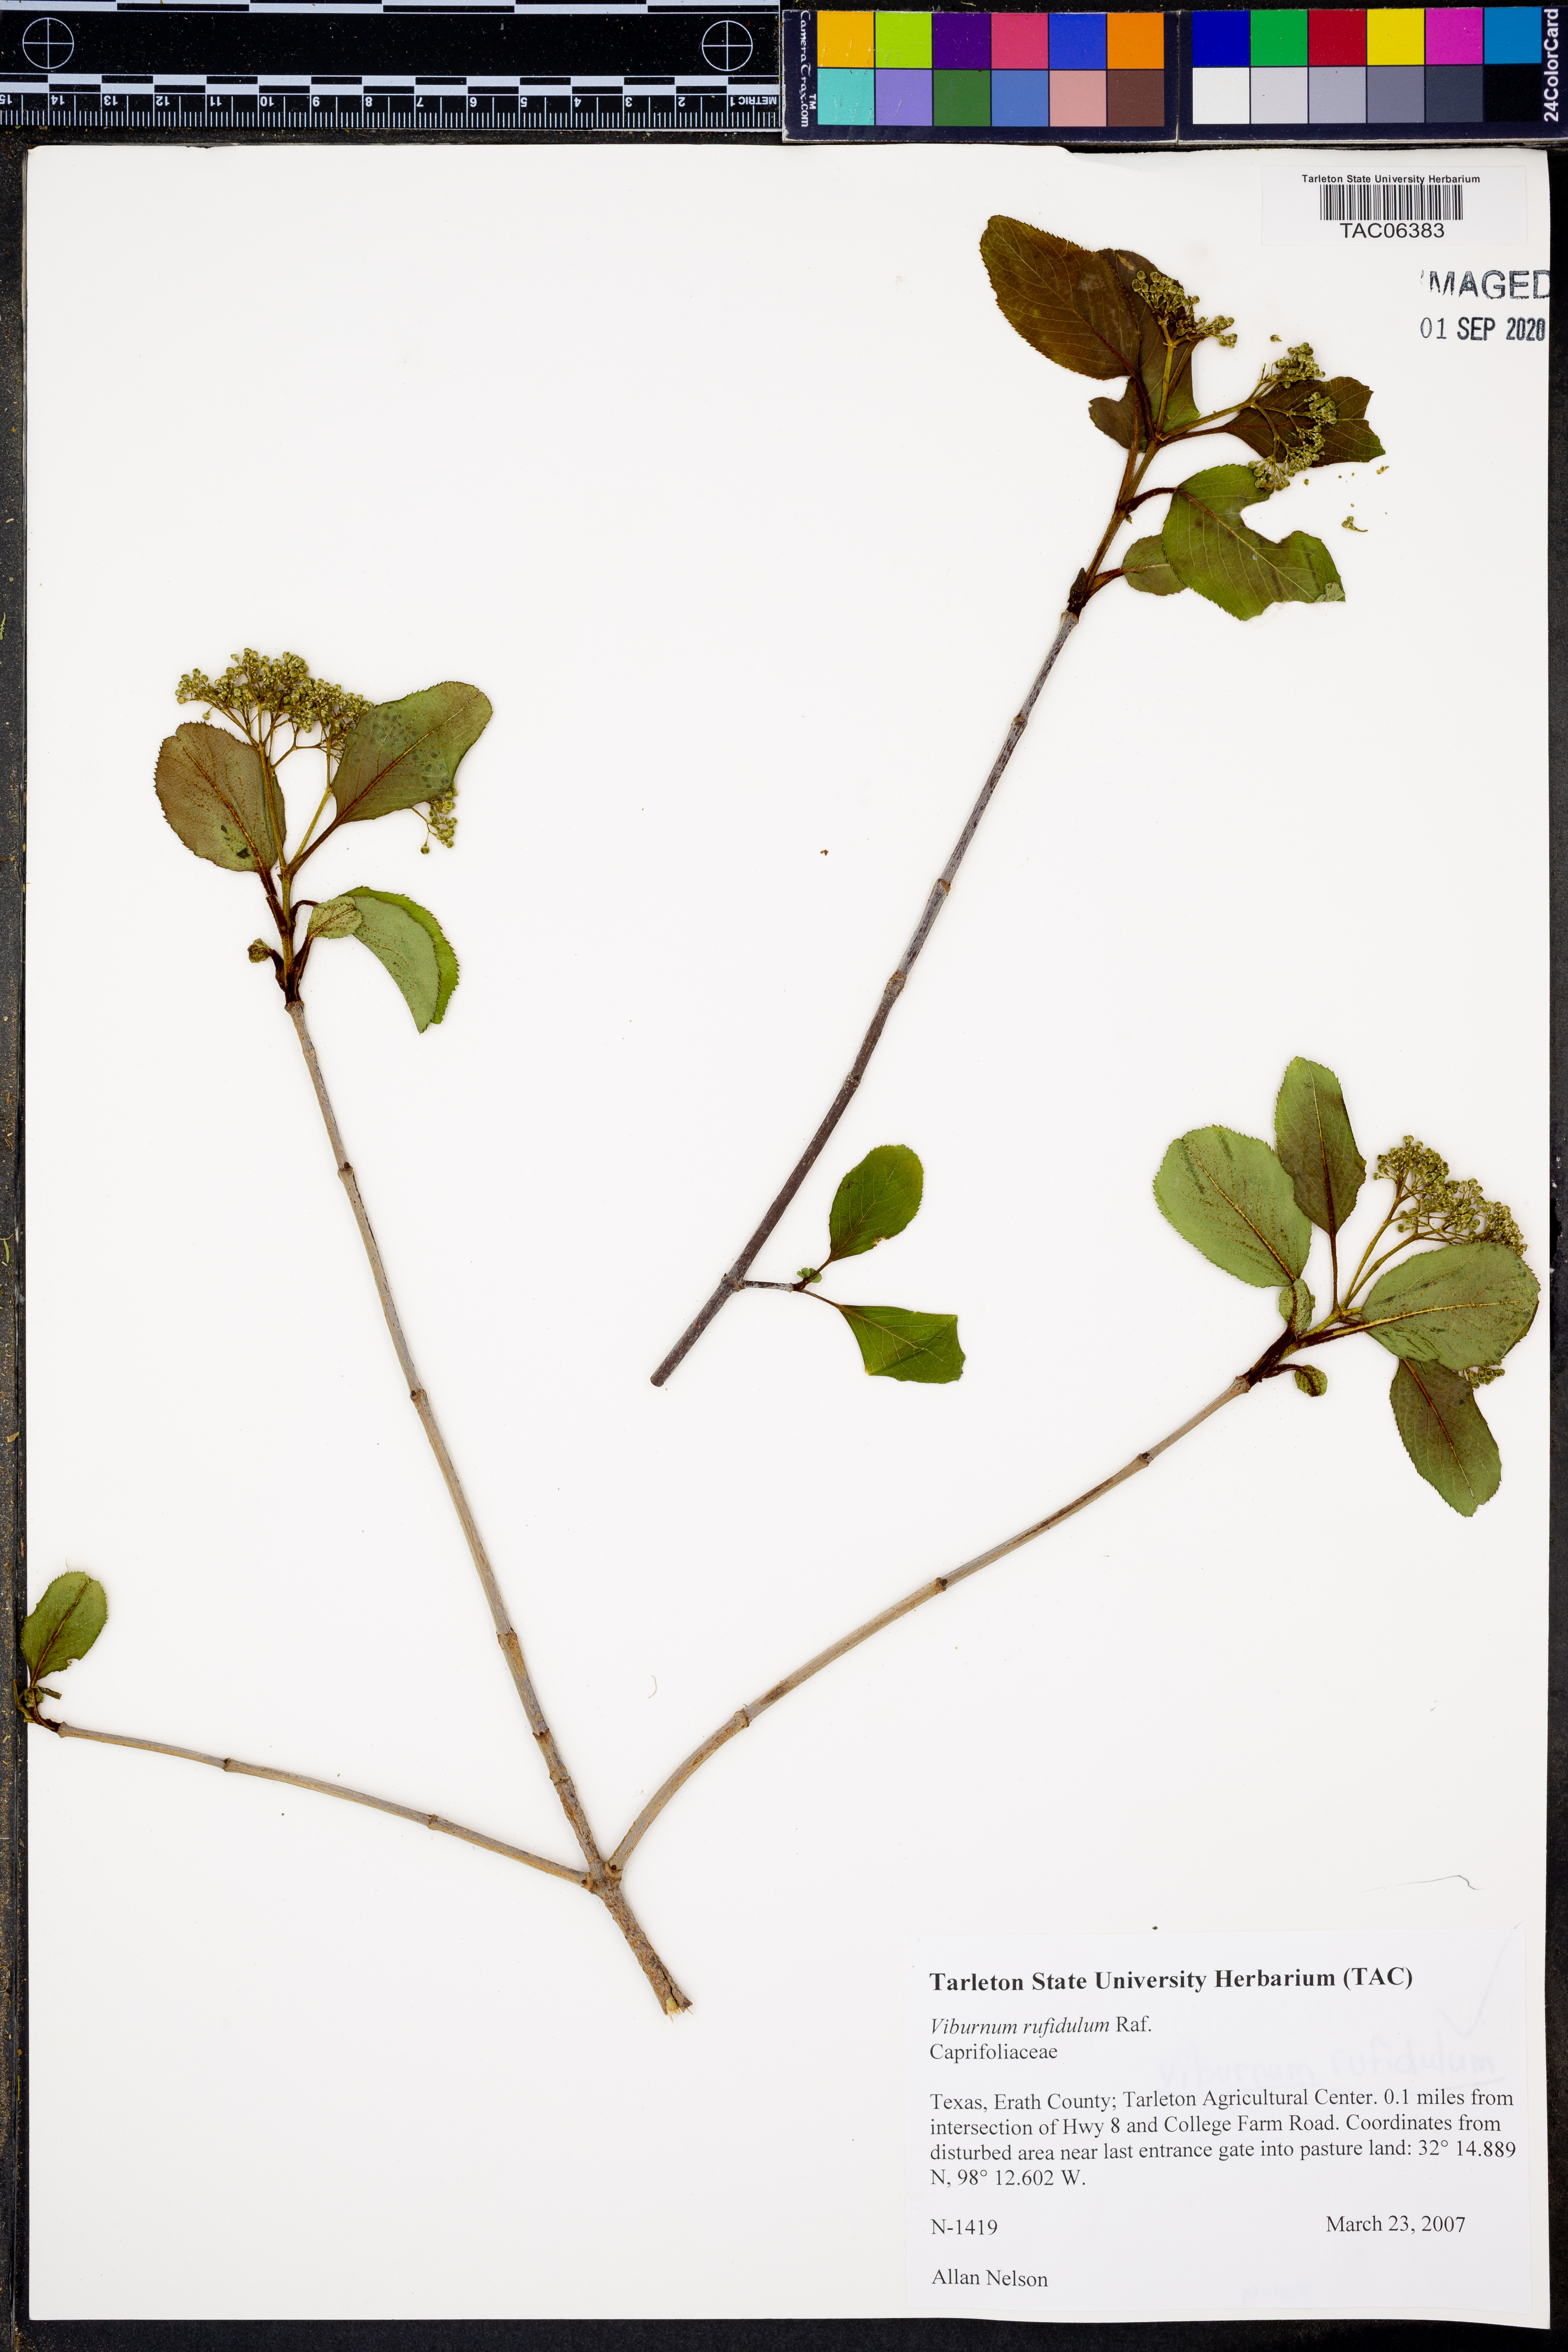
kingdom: Plantae
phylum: Tracheophyta
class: Magnoliopsida
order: Dipsacales
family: Viburnaceae
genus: Viburnum
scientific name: Viburnum rufidulum
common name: Blue haw
